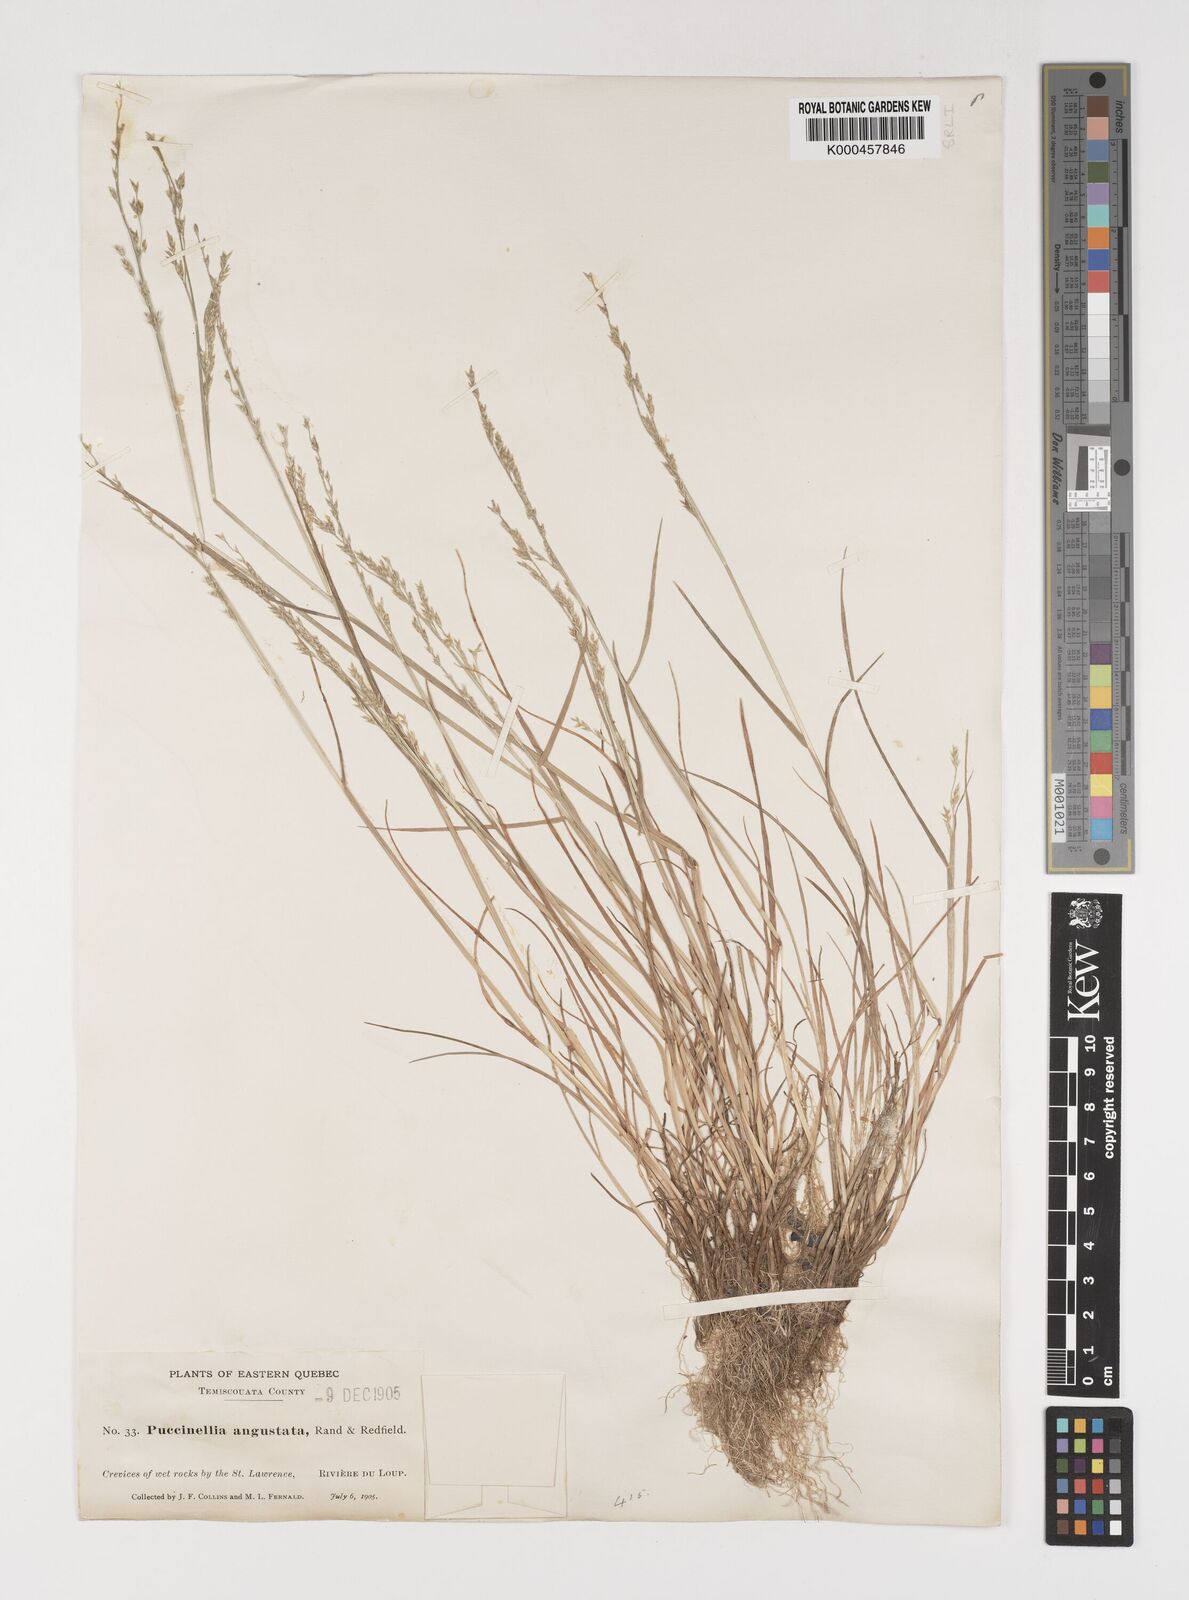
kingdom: Plantae
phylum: Tracheophyta
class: Liliopsida
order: Poales
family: Poaceae
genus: Puccinellia
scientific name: Puccinellia angustata
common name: Narrow alkaligrass
